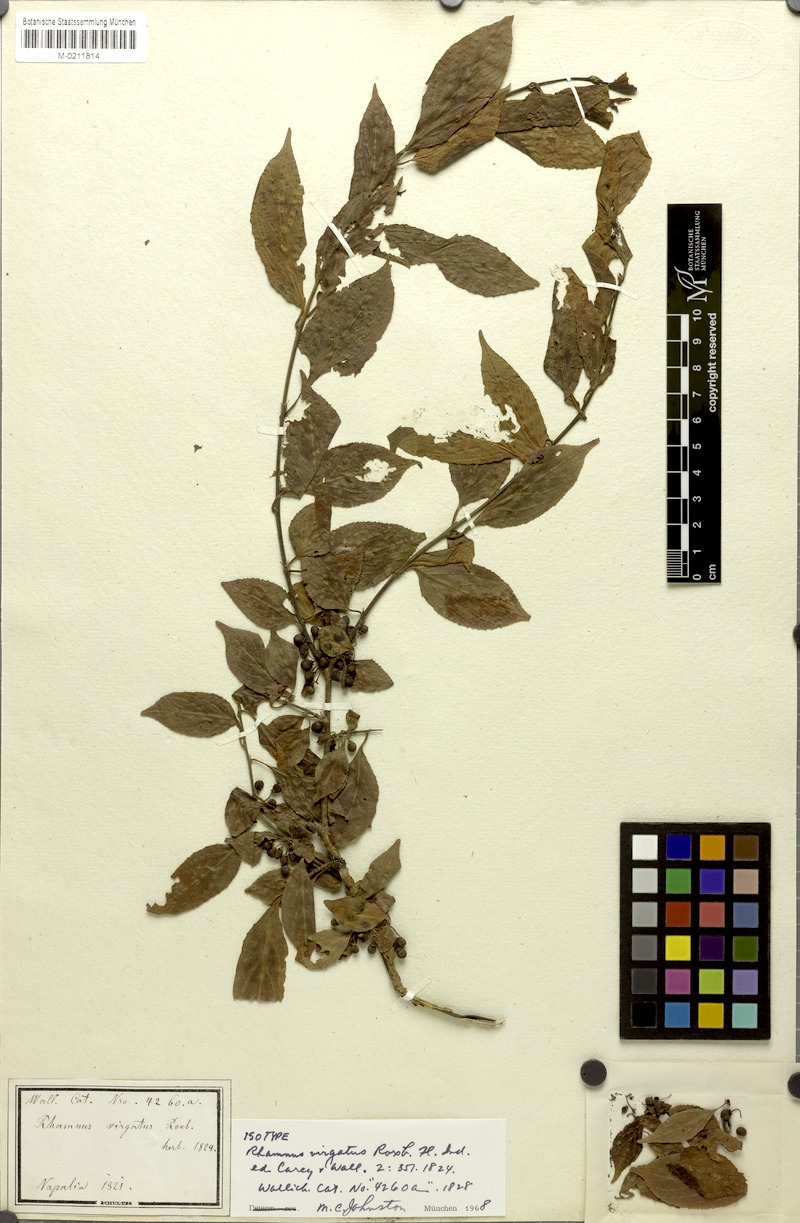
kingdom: Plantae
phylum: Tracheophyta
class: Magnoliopsida
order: Rosales
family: Rhamnaceae
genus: Rhamnus
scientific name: Rhamnus virgata
